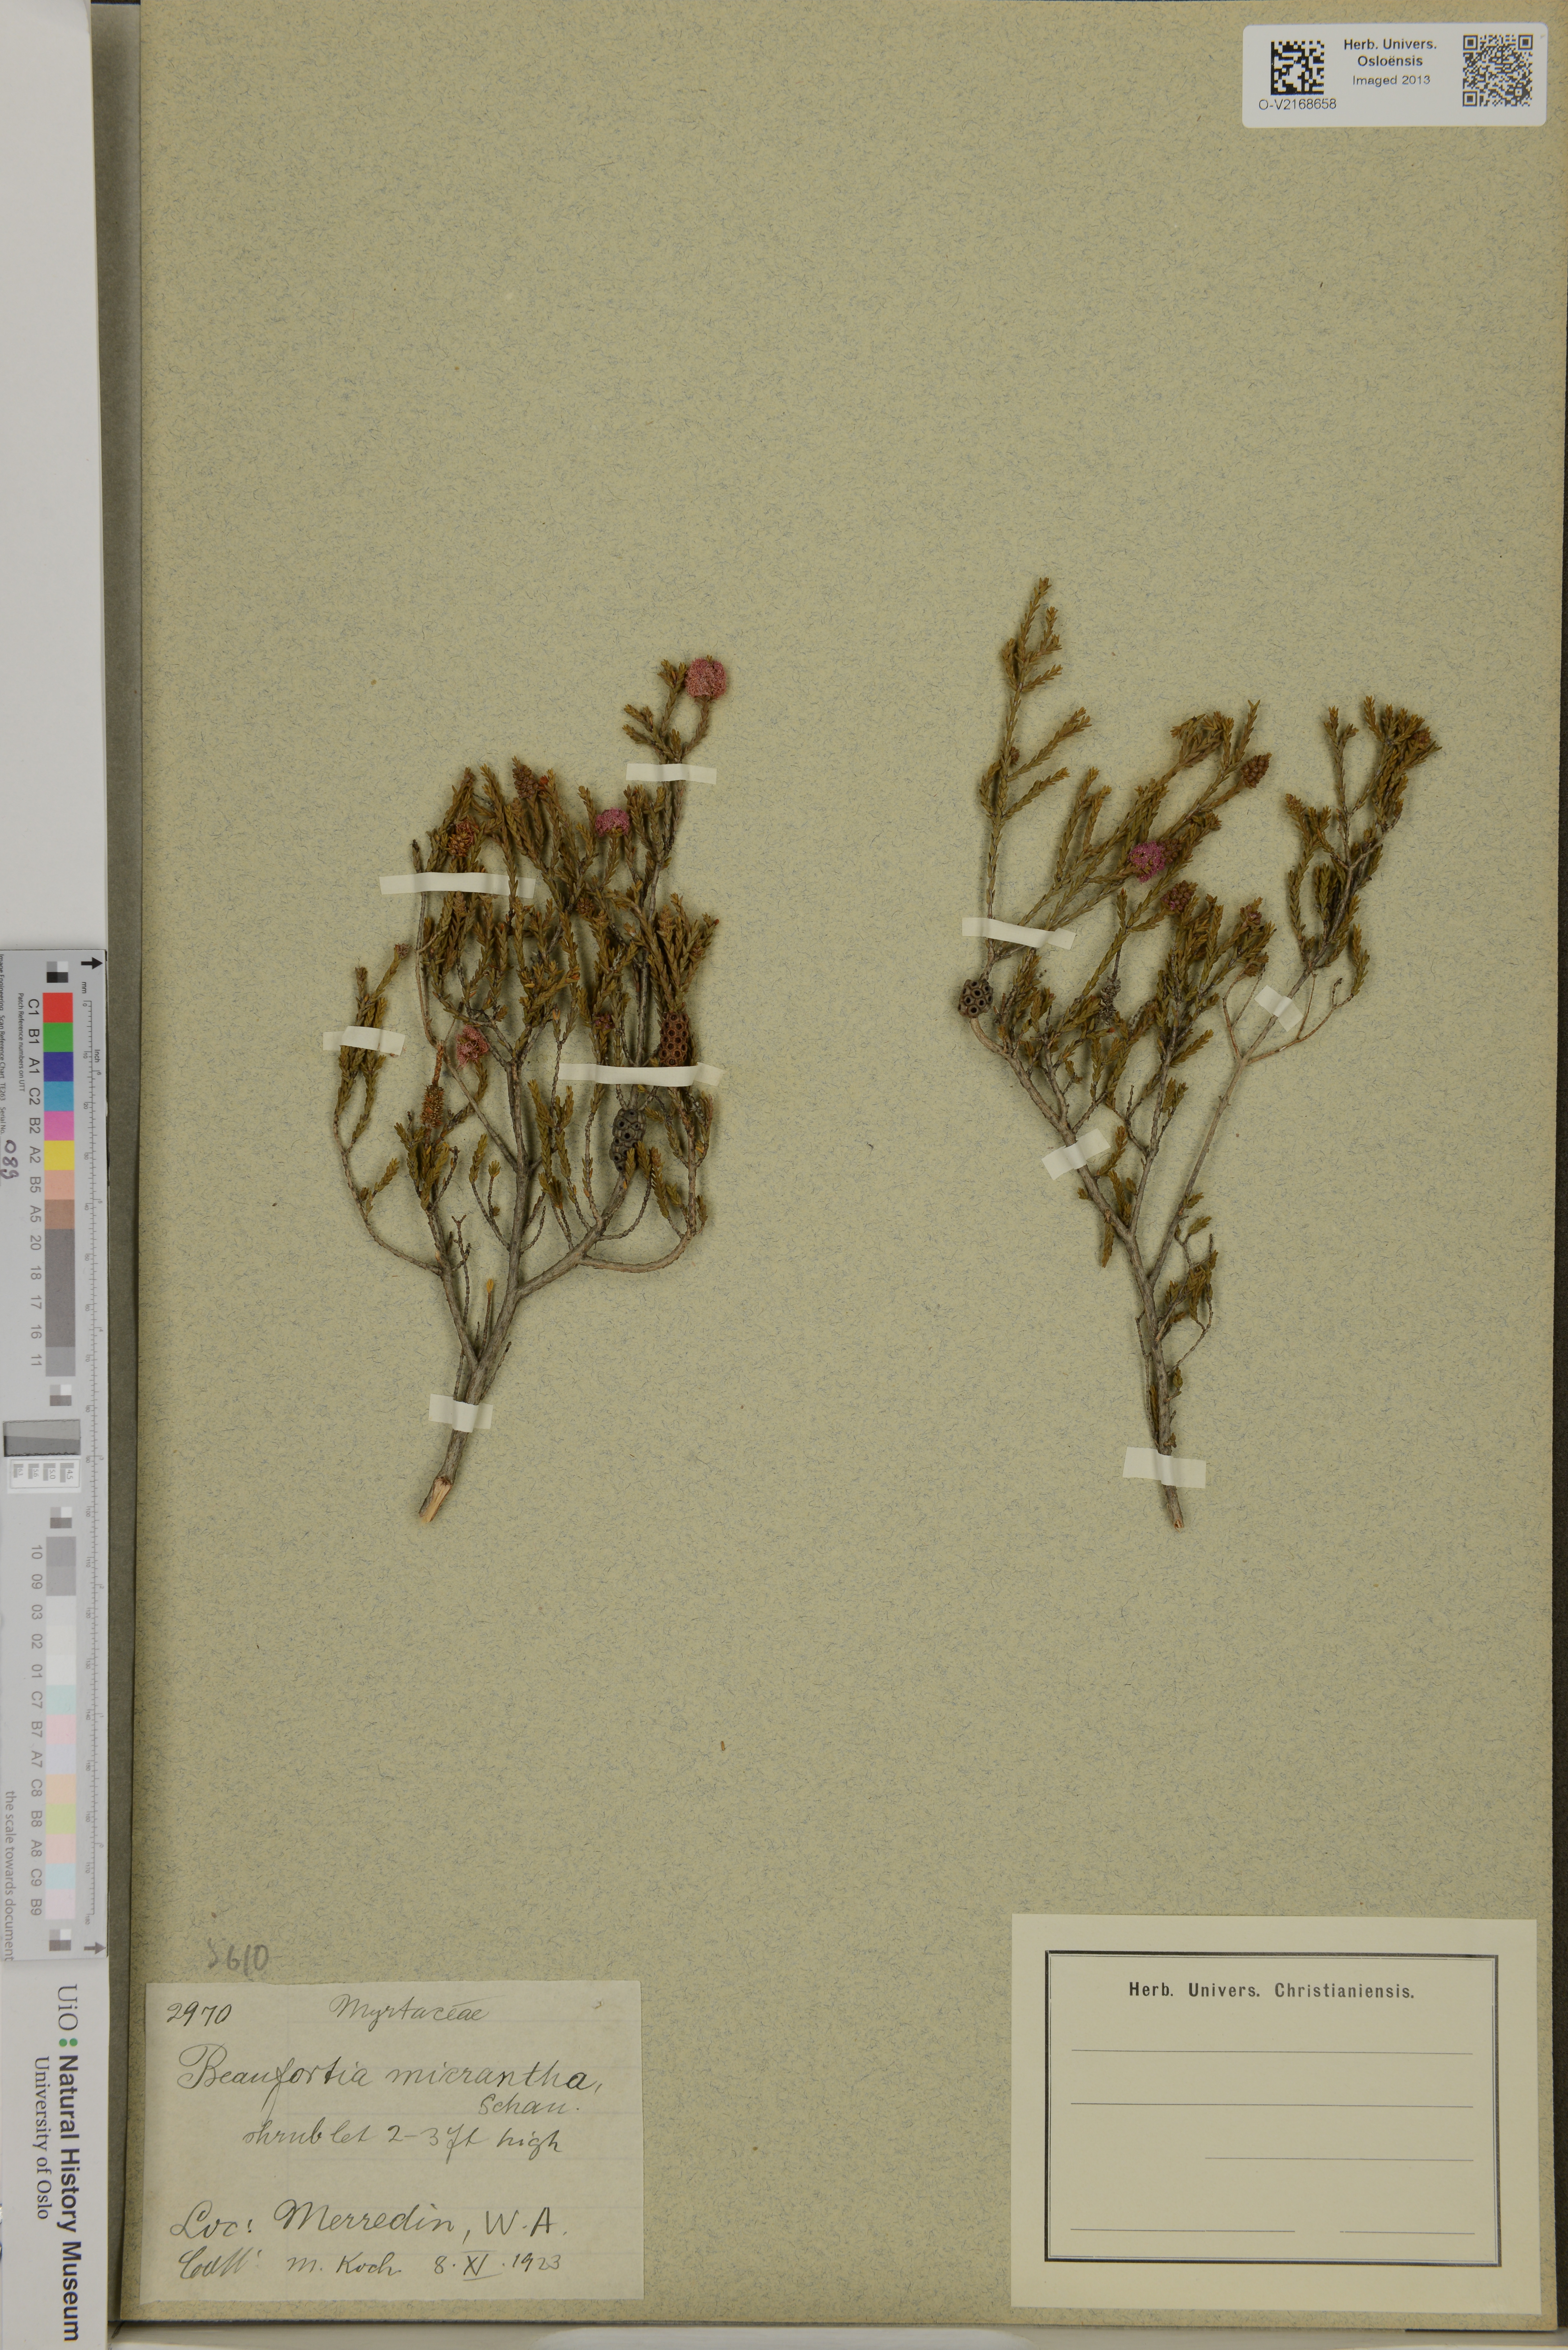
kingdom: Plantae
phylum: Tracheophyta
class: Magnoliopsida
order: Myrtales
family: Myrtaceae
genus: Melaleuca
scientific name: Melaleuca micrantha
